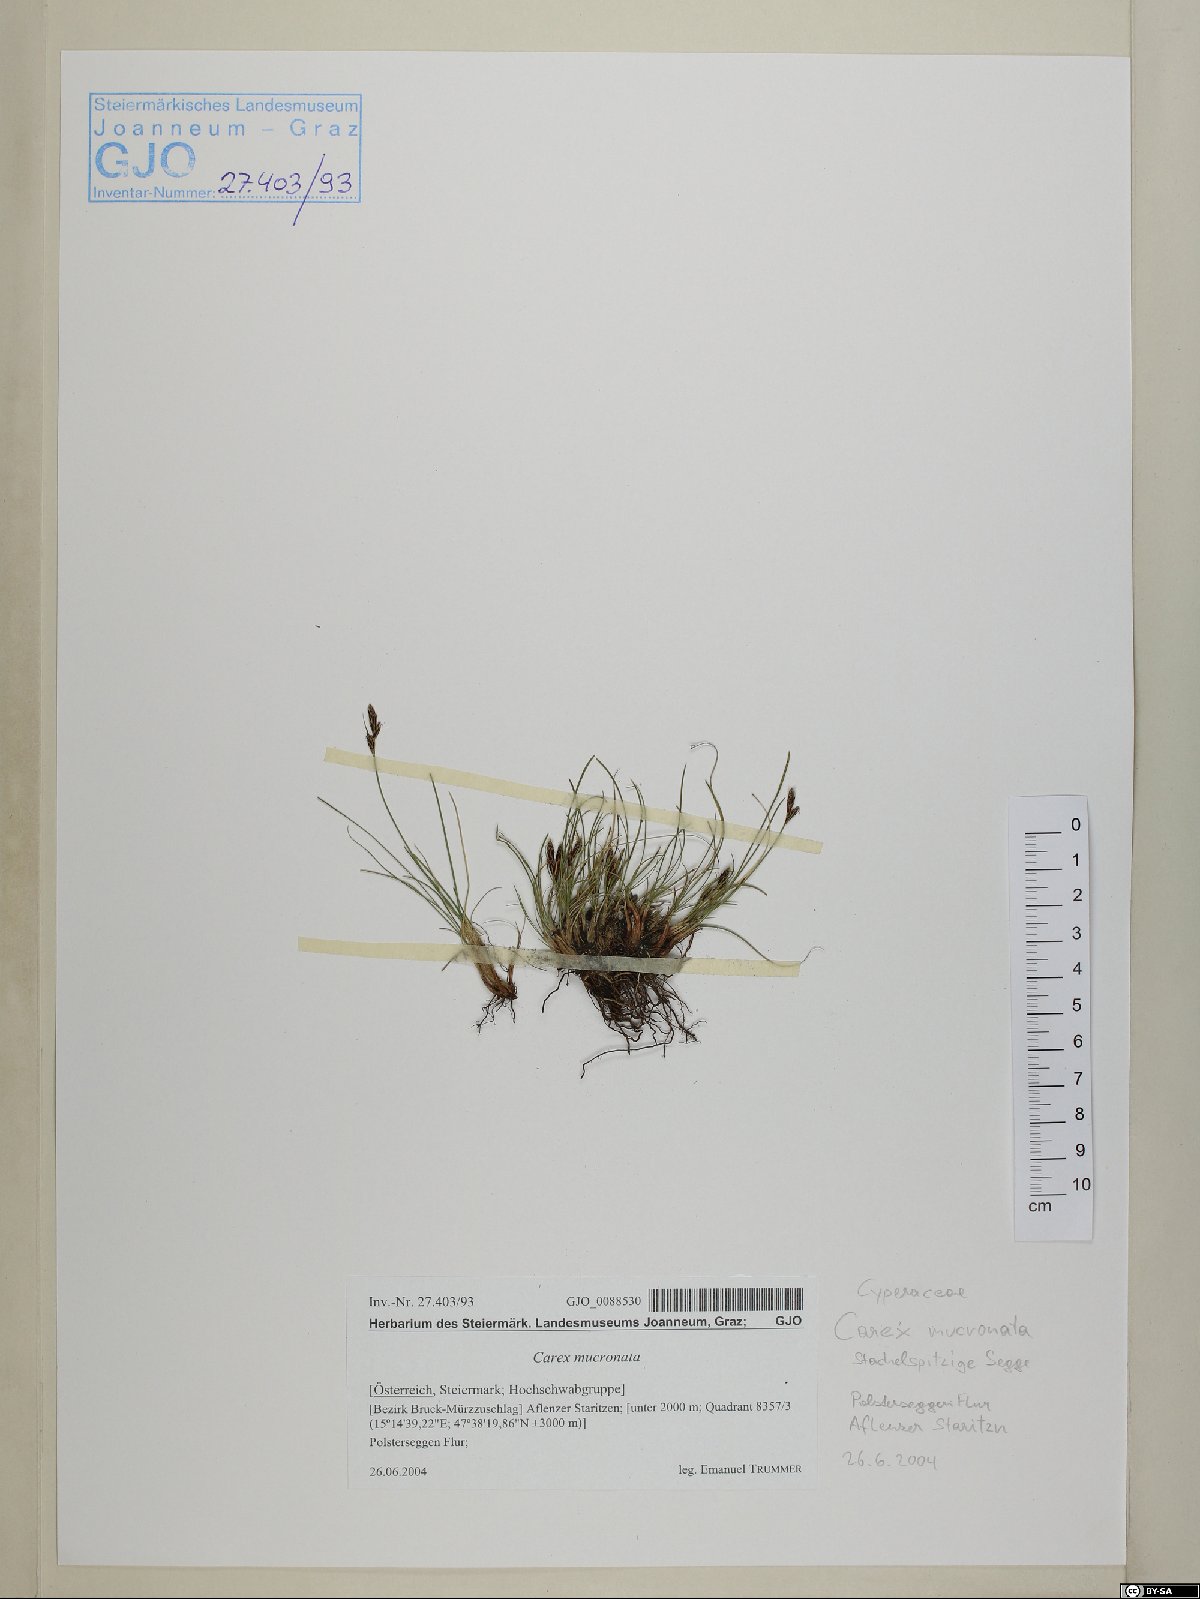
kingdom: Plantae
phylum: Tracheophyta
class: Liliopsida
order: Poales
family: Cyperaceae
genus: Carex
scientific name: Carex mucronata
